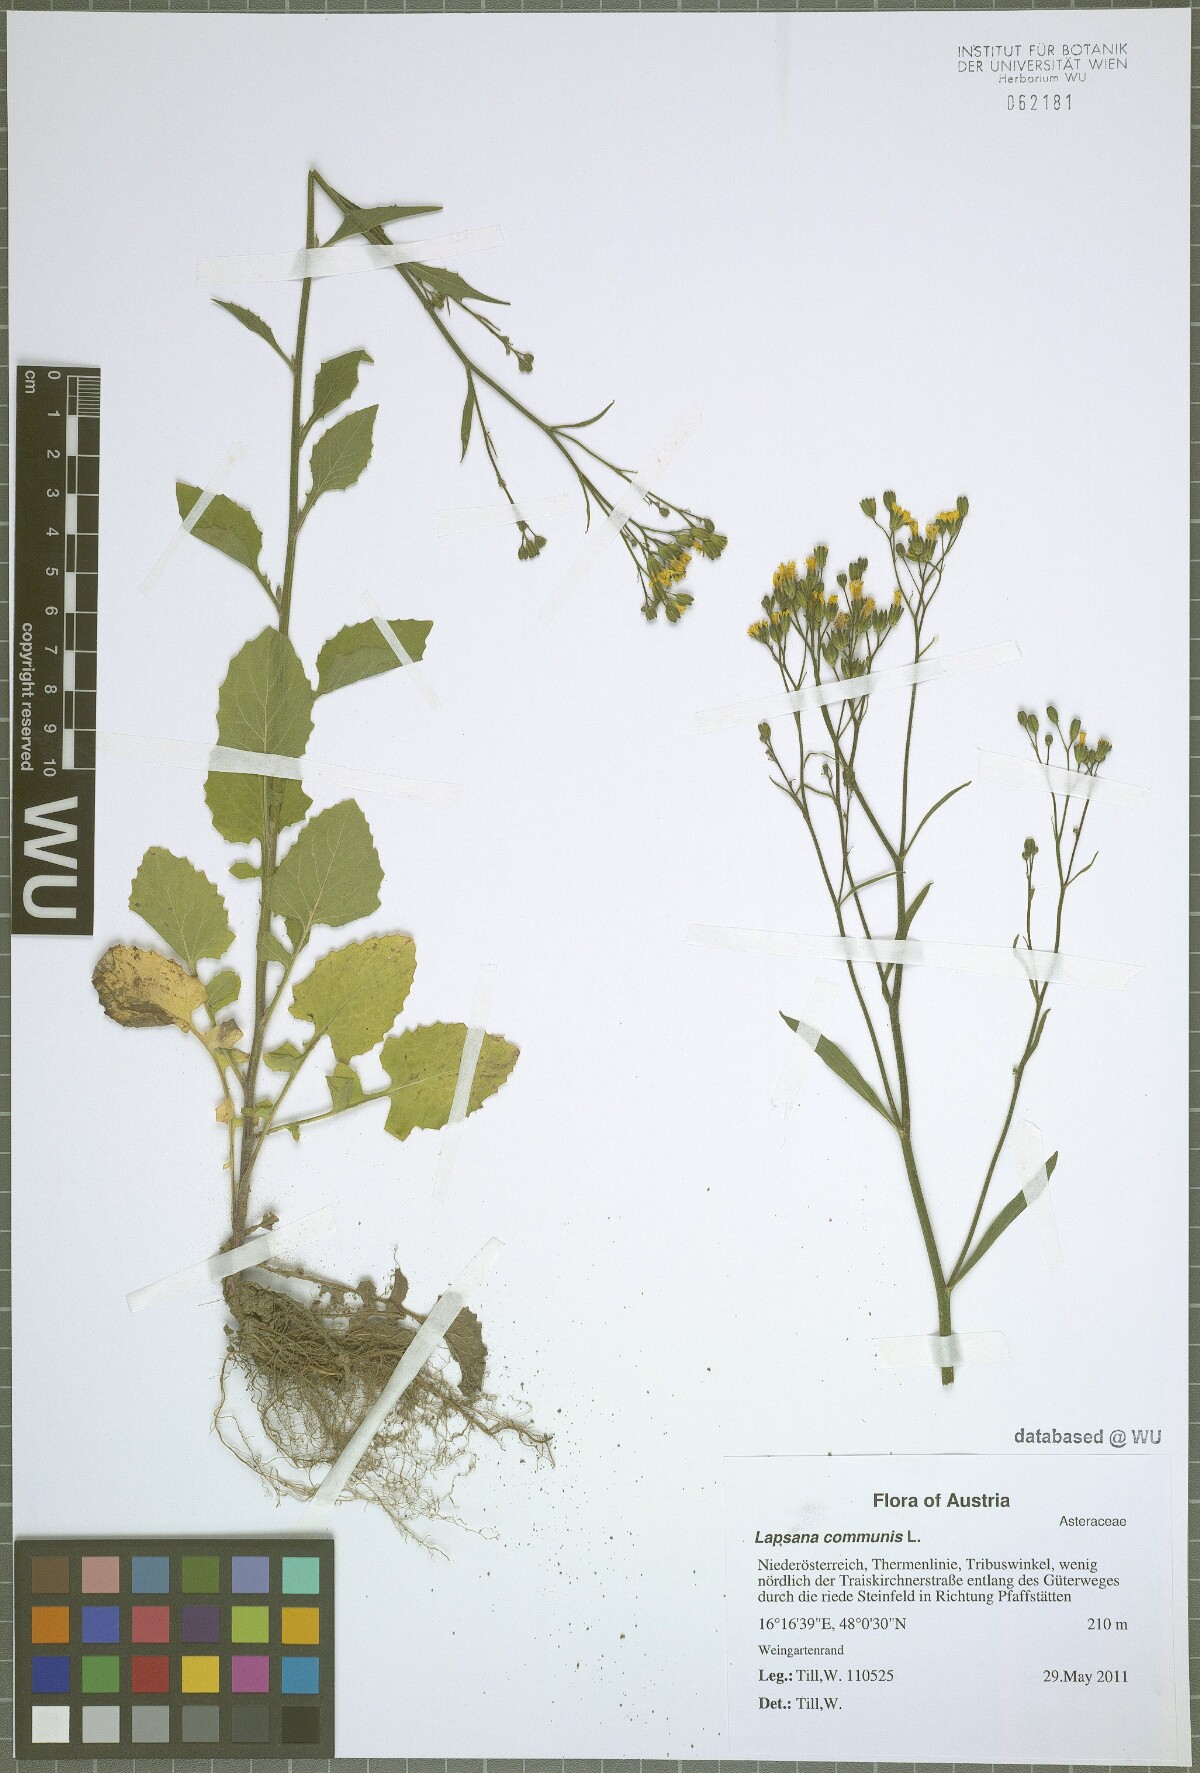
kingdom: Plantae
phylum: Tracheophyta
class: Magnoliopsida
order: Asterales
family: Asteraceae
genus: Lapsana
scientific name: Lapsana communis
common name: Nipplewort
